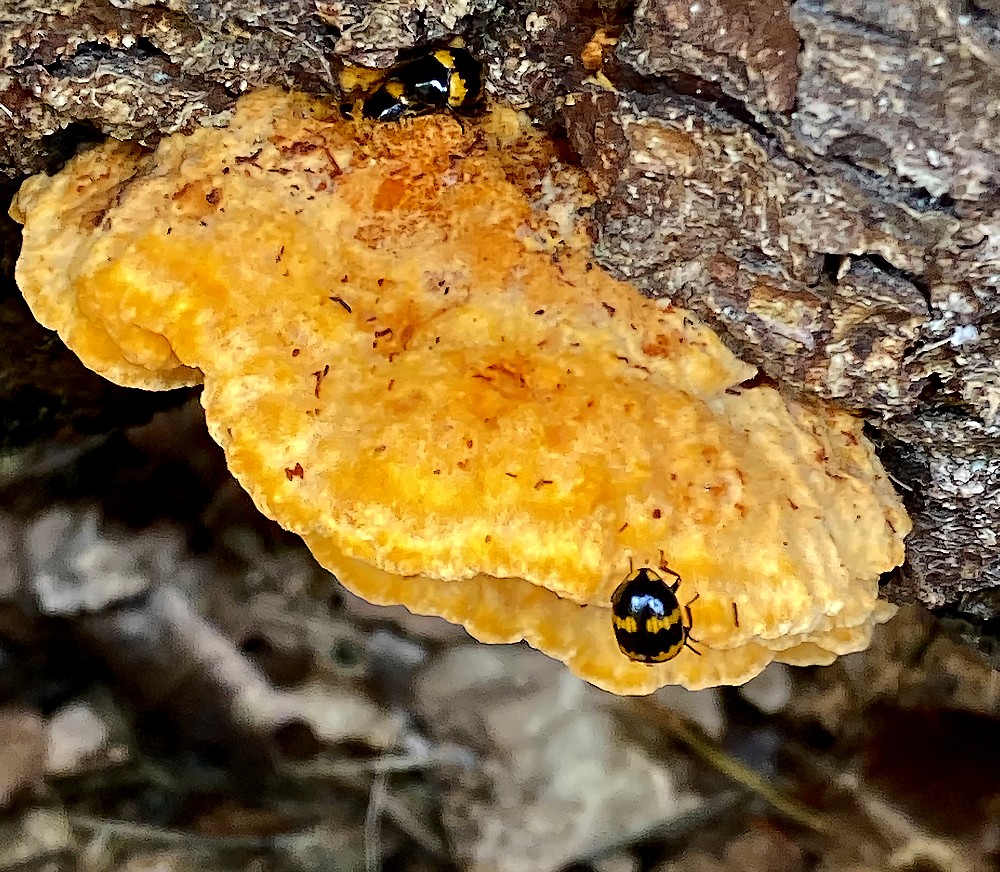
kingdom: Fungi
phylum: Basidiomycota
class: Agaricomycetes
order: Polyporales
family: Pycnoporellaceae
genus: Pycnoporellus
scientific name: Pycnoporellus fulgens
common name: flammeporesvamp
